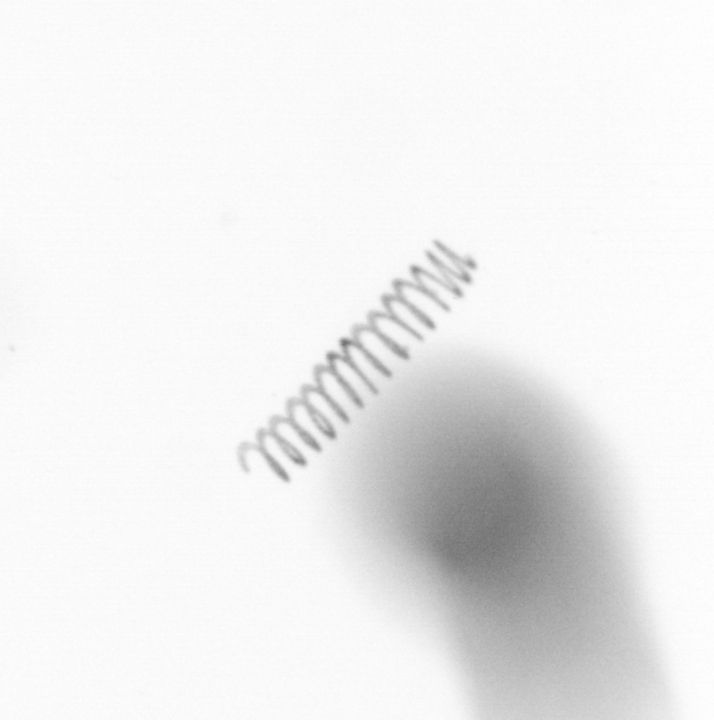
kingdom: Chromista
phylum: Ochrophyta
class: Bacillariophyceae
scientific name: Bacillariophyceae
